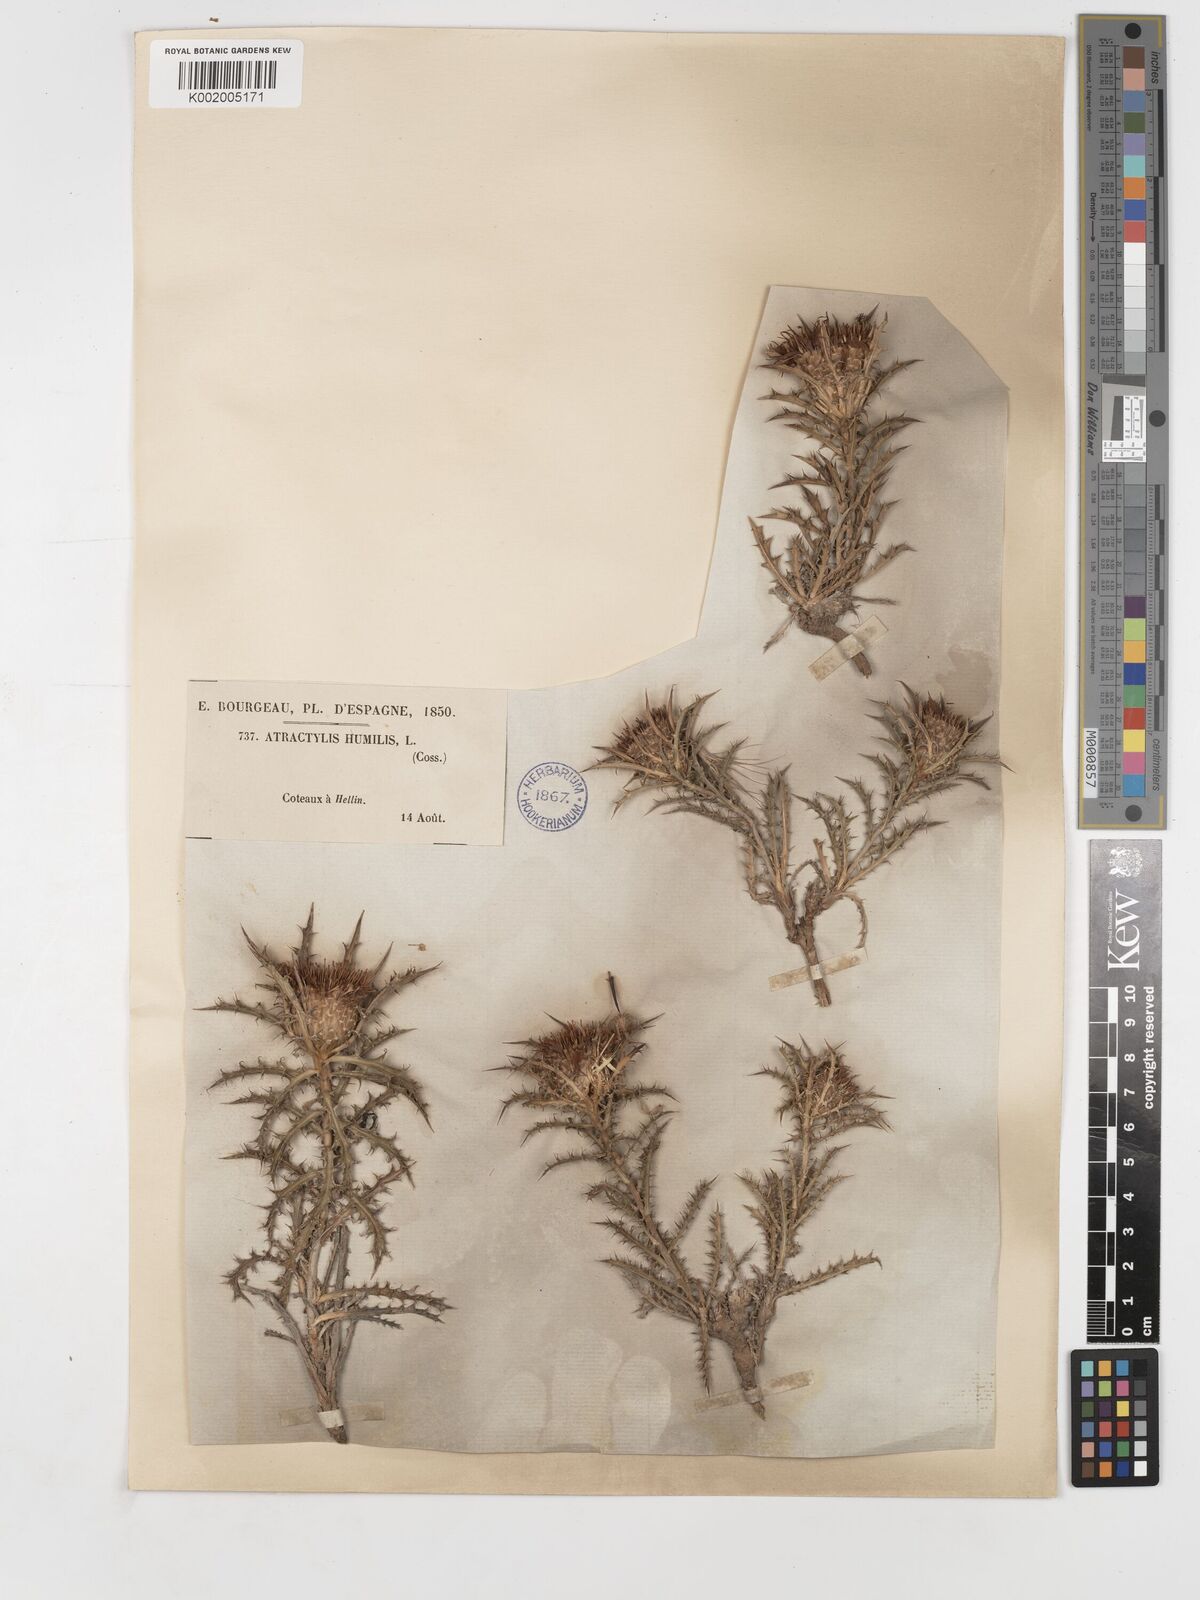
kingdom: Plantae
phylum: Tracheophyta
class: Magnoliopsida
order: Asterales
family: Asteraceae
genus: Atractylis
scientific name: Atractylis humilis
